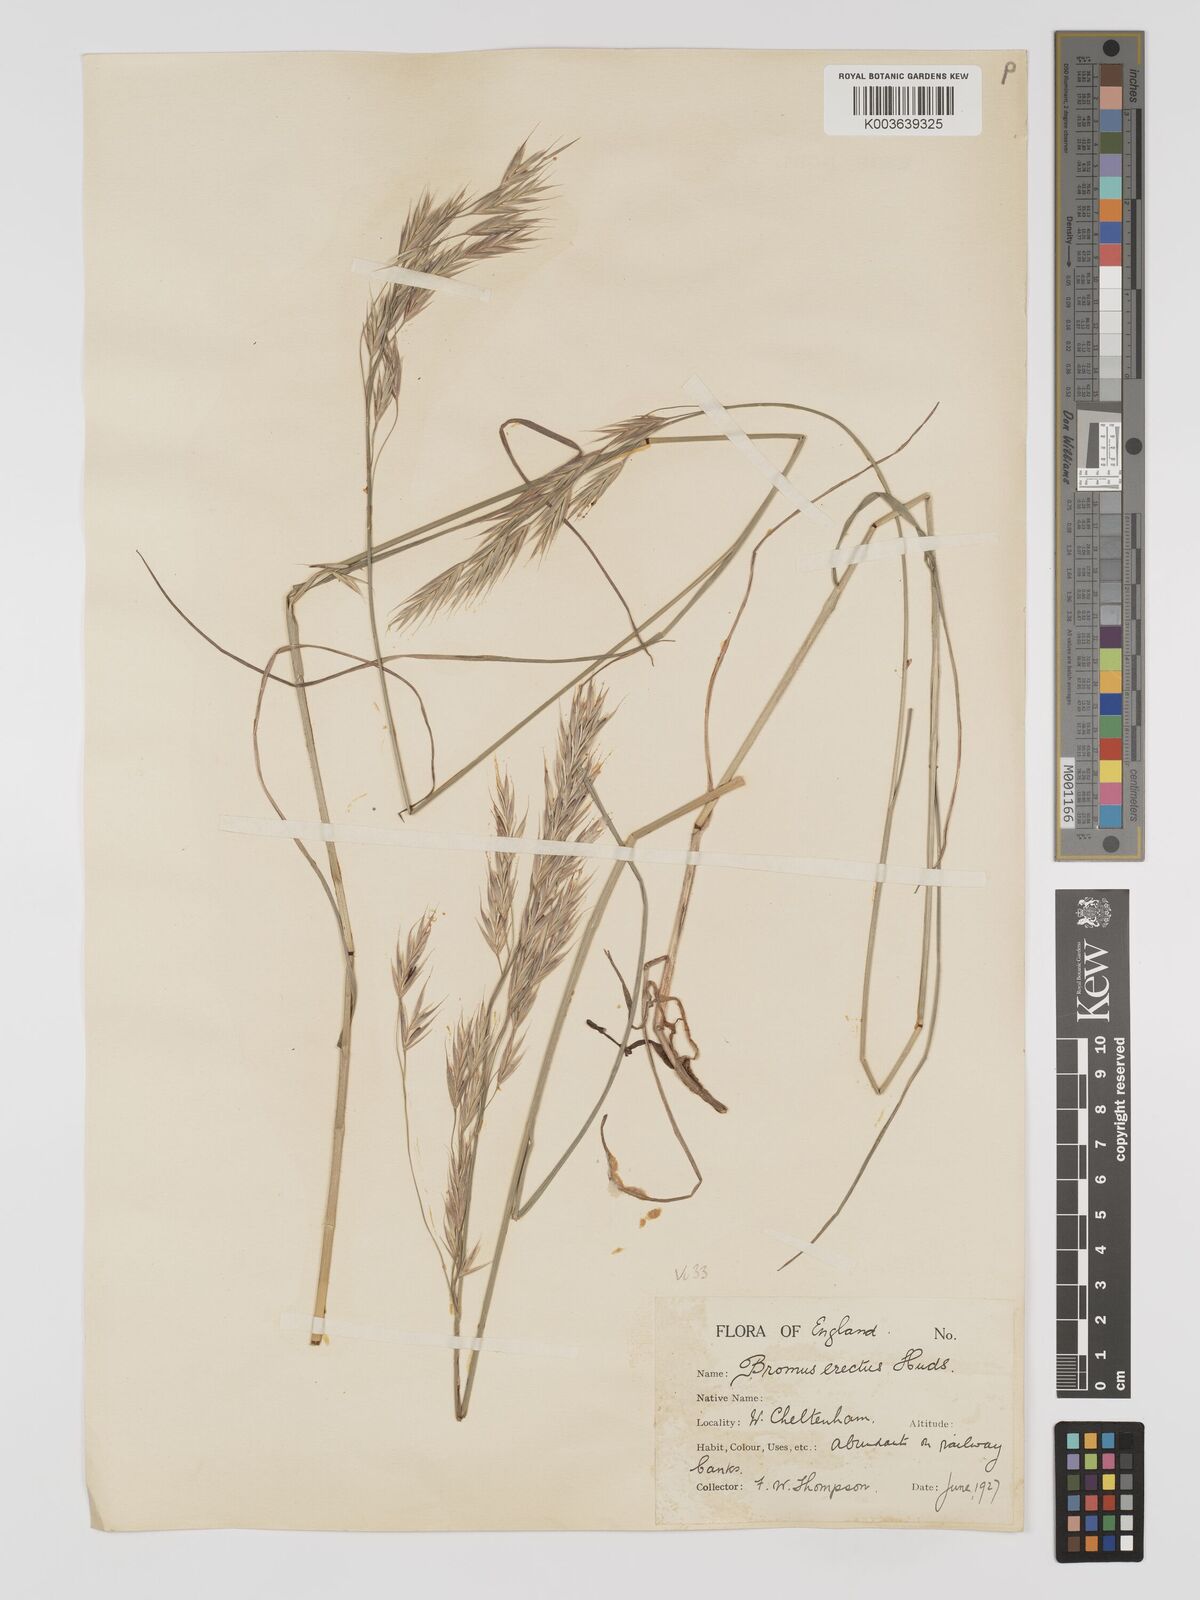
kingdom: Plantae
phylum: Tracheophyta
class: Liliopsida
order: Poales
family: Poaceae
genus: Bromus
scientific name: Bromus erectus
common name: Erect brome
